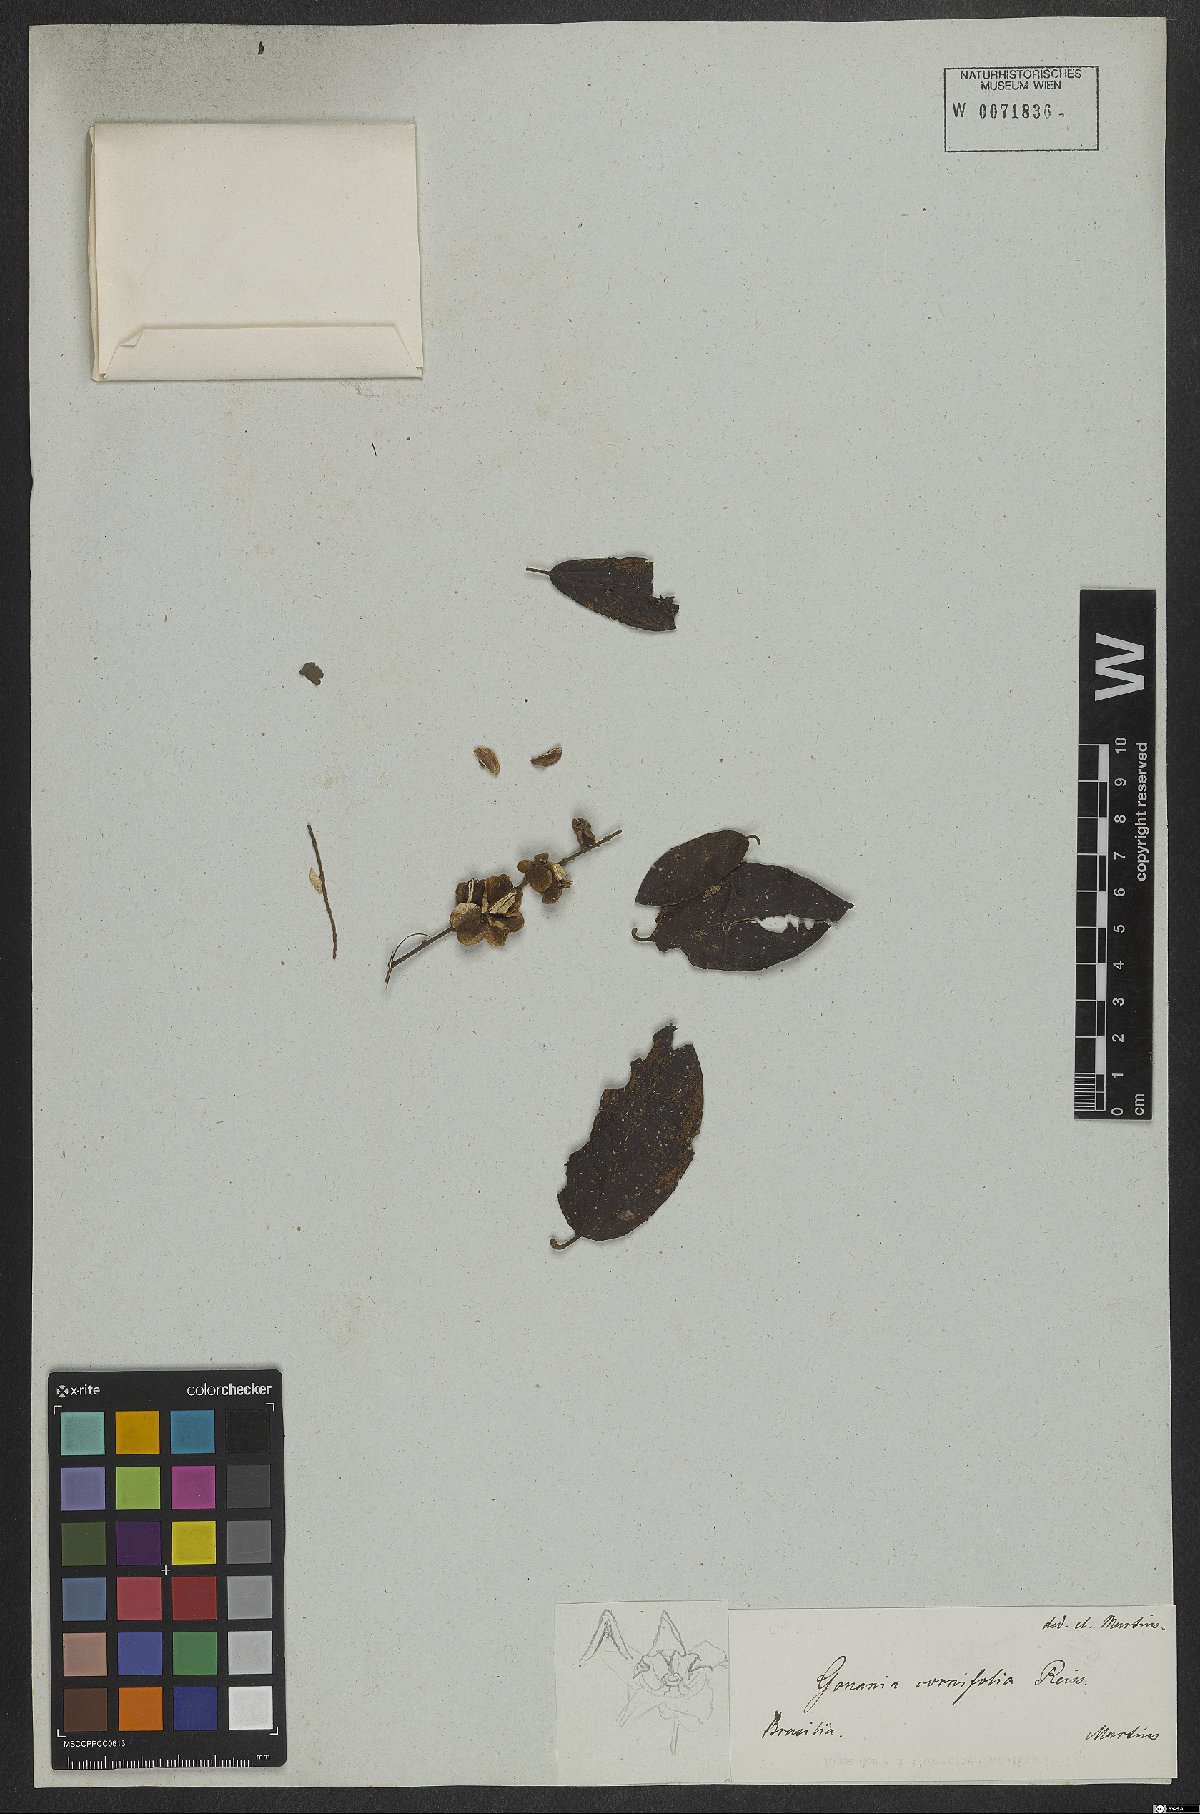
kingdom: Plantae
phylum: Tracheophyta
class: Magnoliopsida
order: Rosales
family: Rhamnaceae
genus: Gouania
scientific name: Gouania cornifolia
